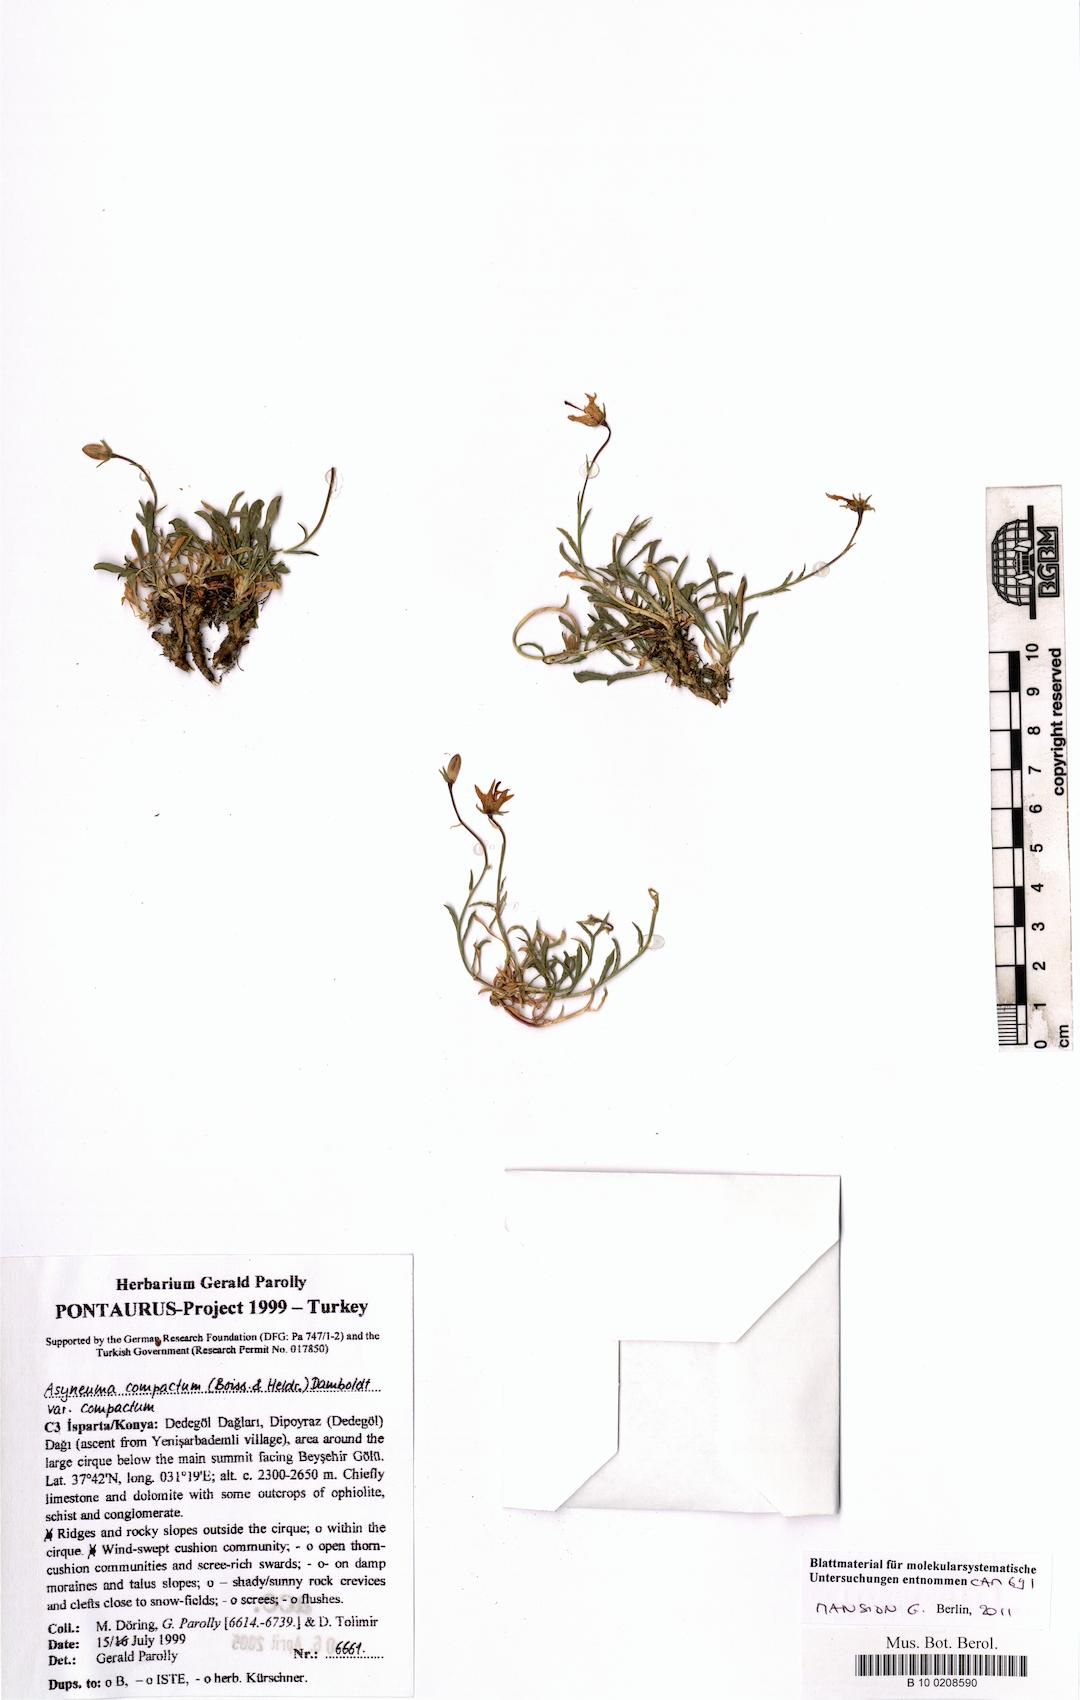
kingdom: Plantae
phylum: Tracheophyta
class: Magnoliopsida
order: Asterales
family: Campanulaceae
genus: Asyneuma
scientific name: Asyneuma compactum
